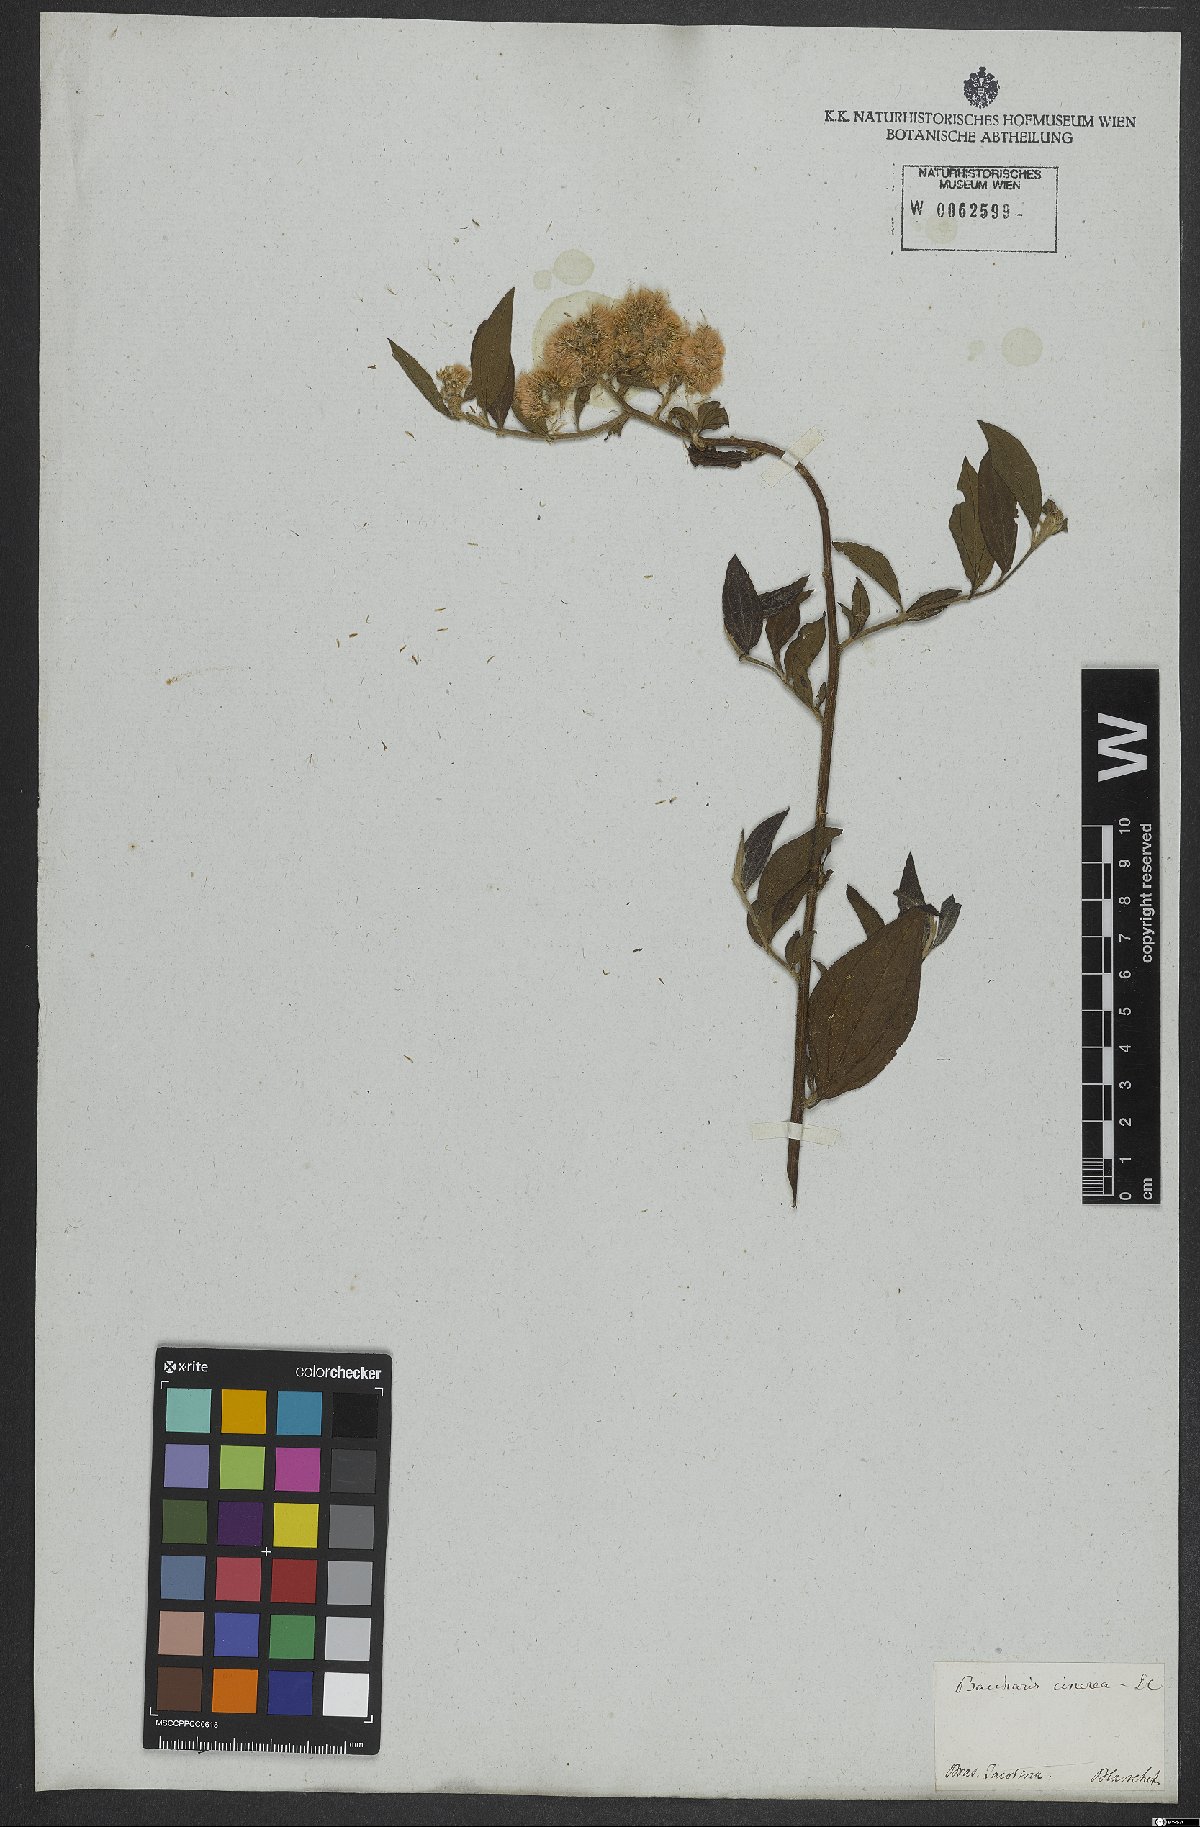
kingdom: Plantae
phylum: Tracheophyta
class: Magnoliopsida
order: Asterales
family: Asteraceae
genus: Baccharis
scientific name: Baccharis trinervis
